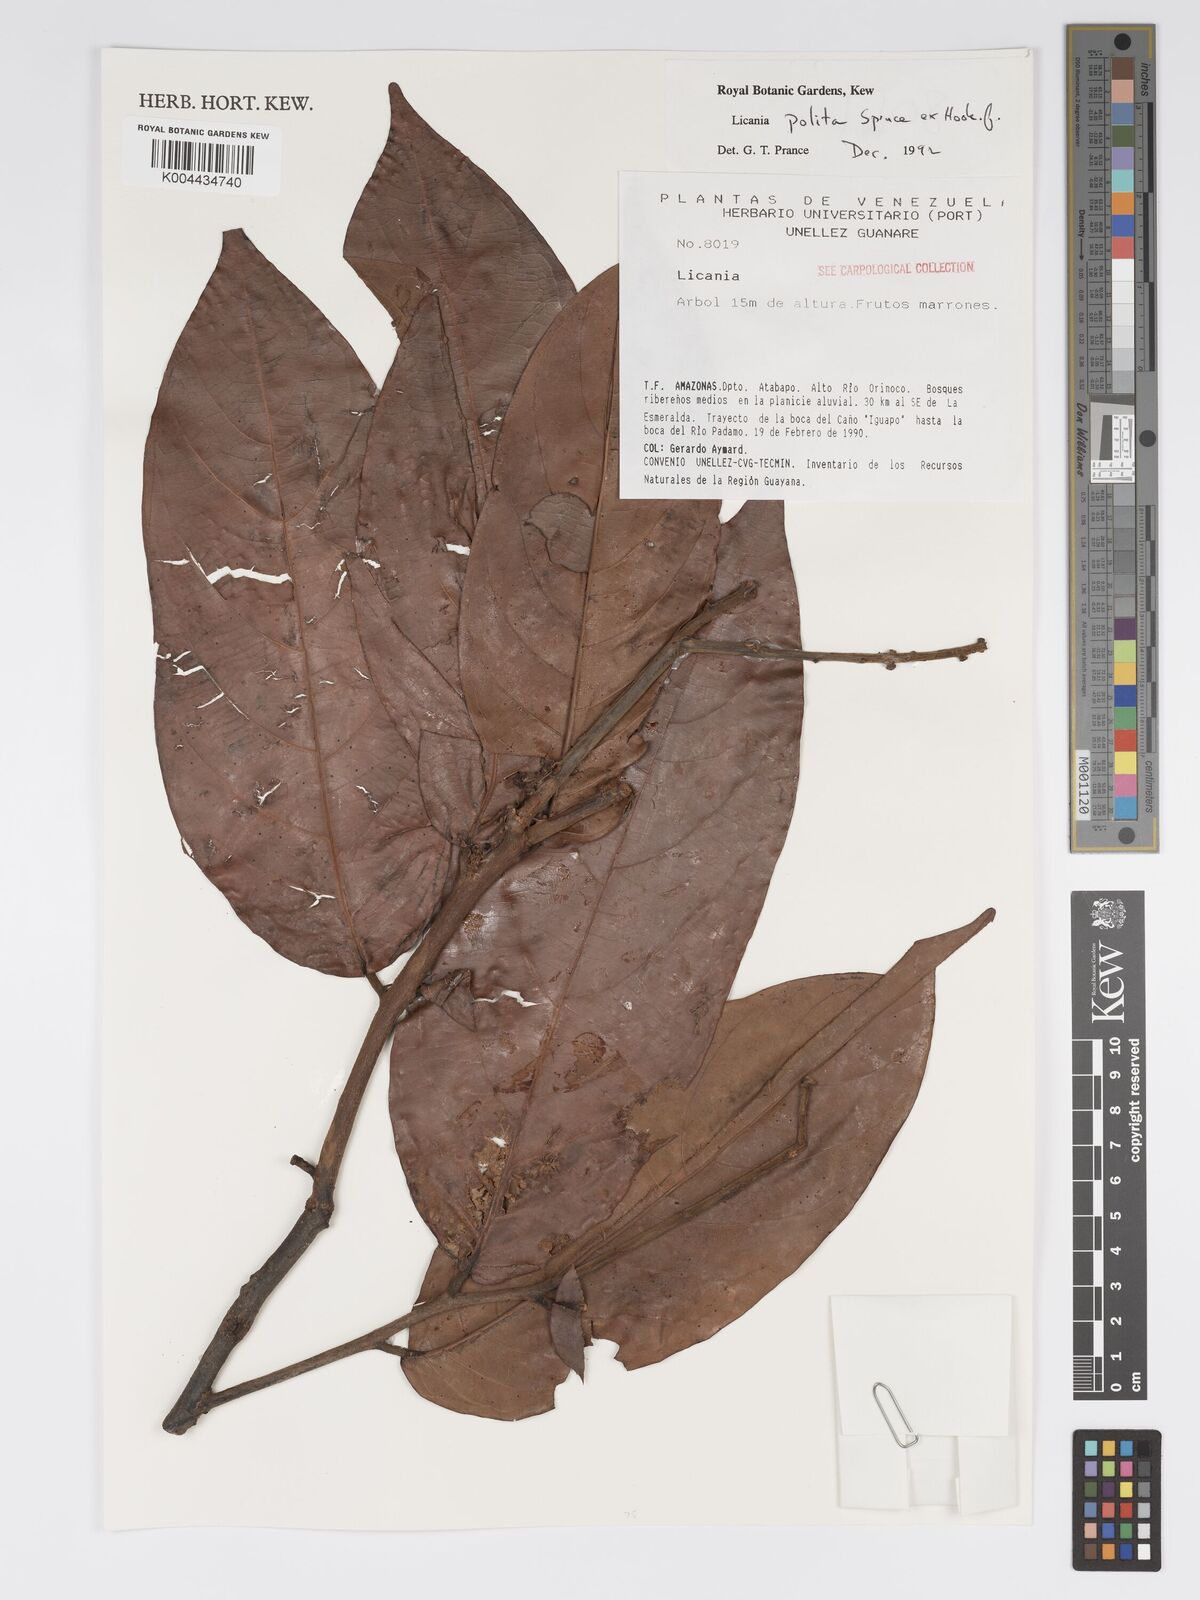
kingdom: Plantae
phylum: Tracheophyta
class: Magnoliopsida
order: Malpighiales
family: Chrysobalanaceae
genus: Licania
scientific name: Licania polita
